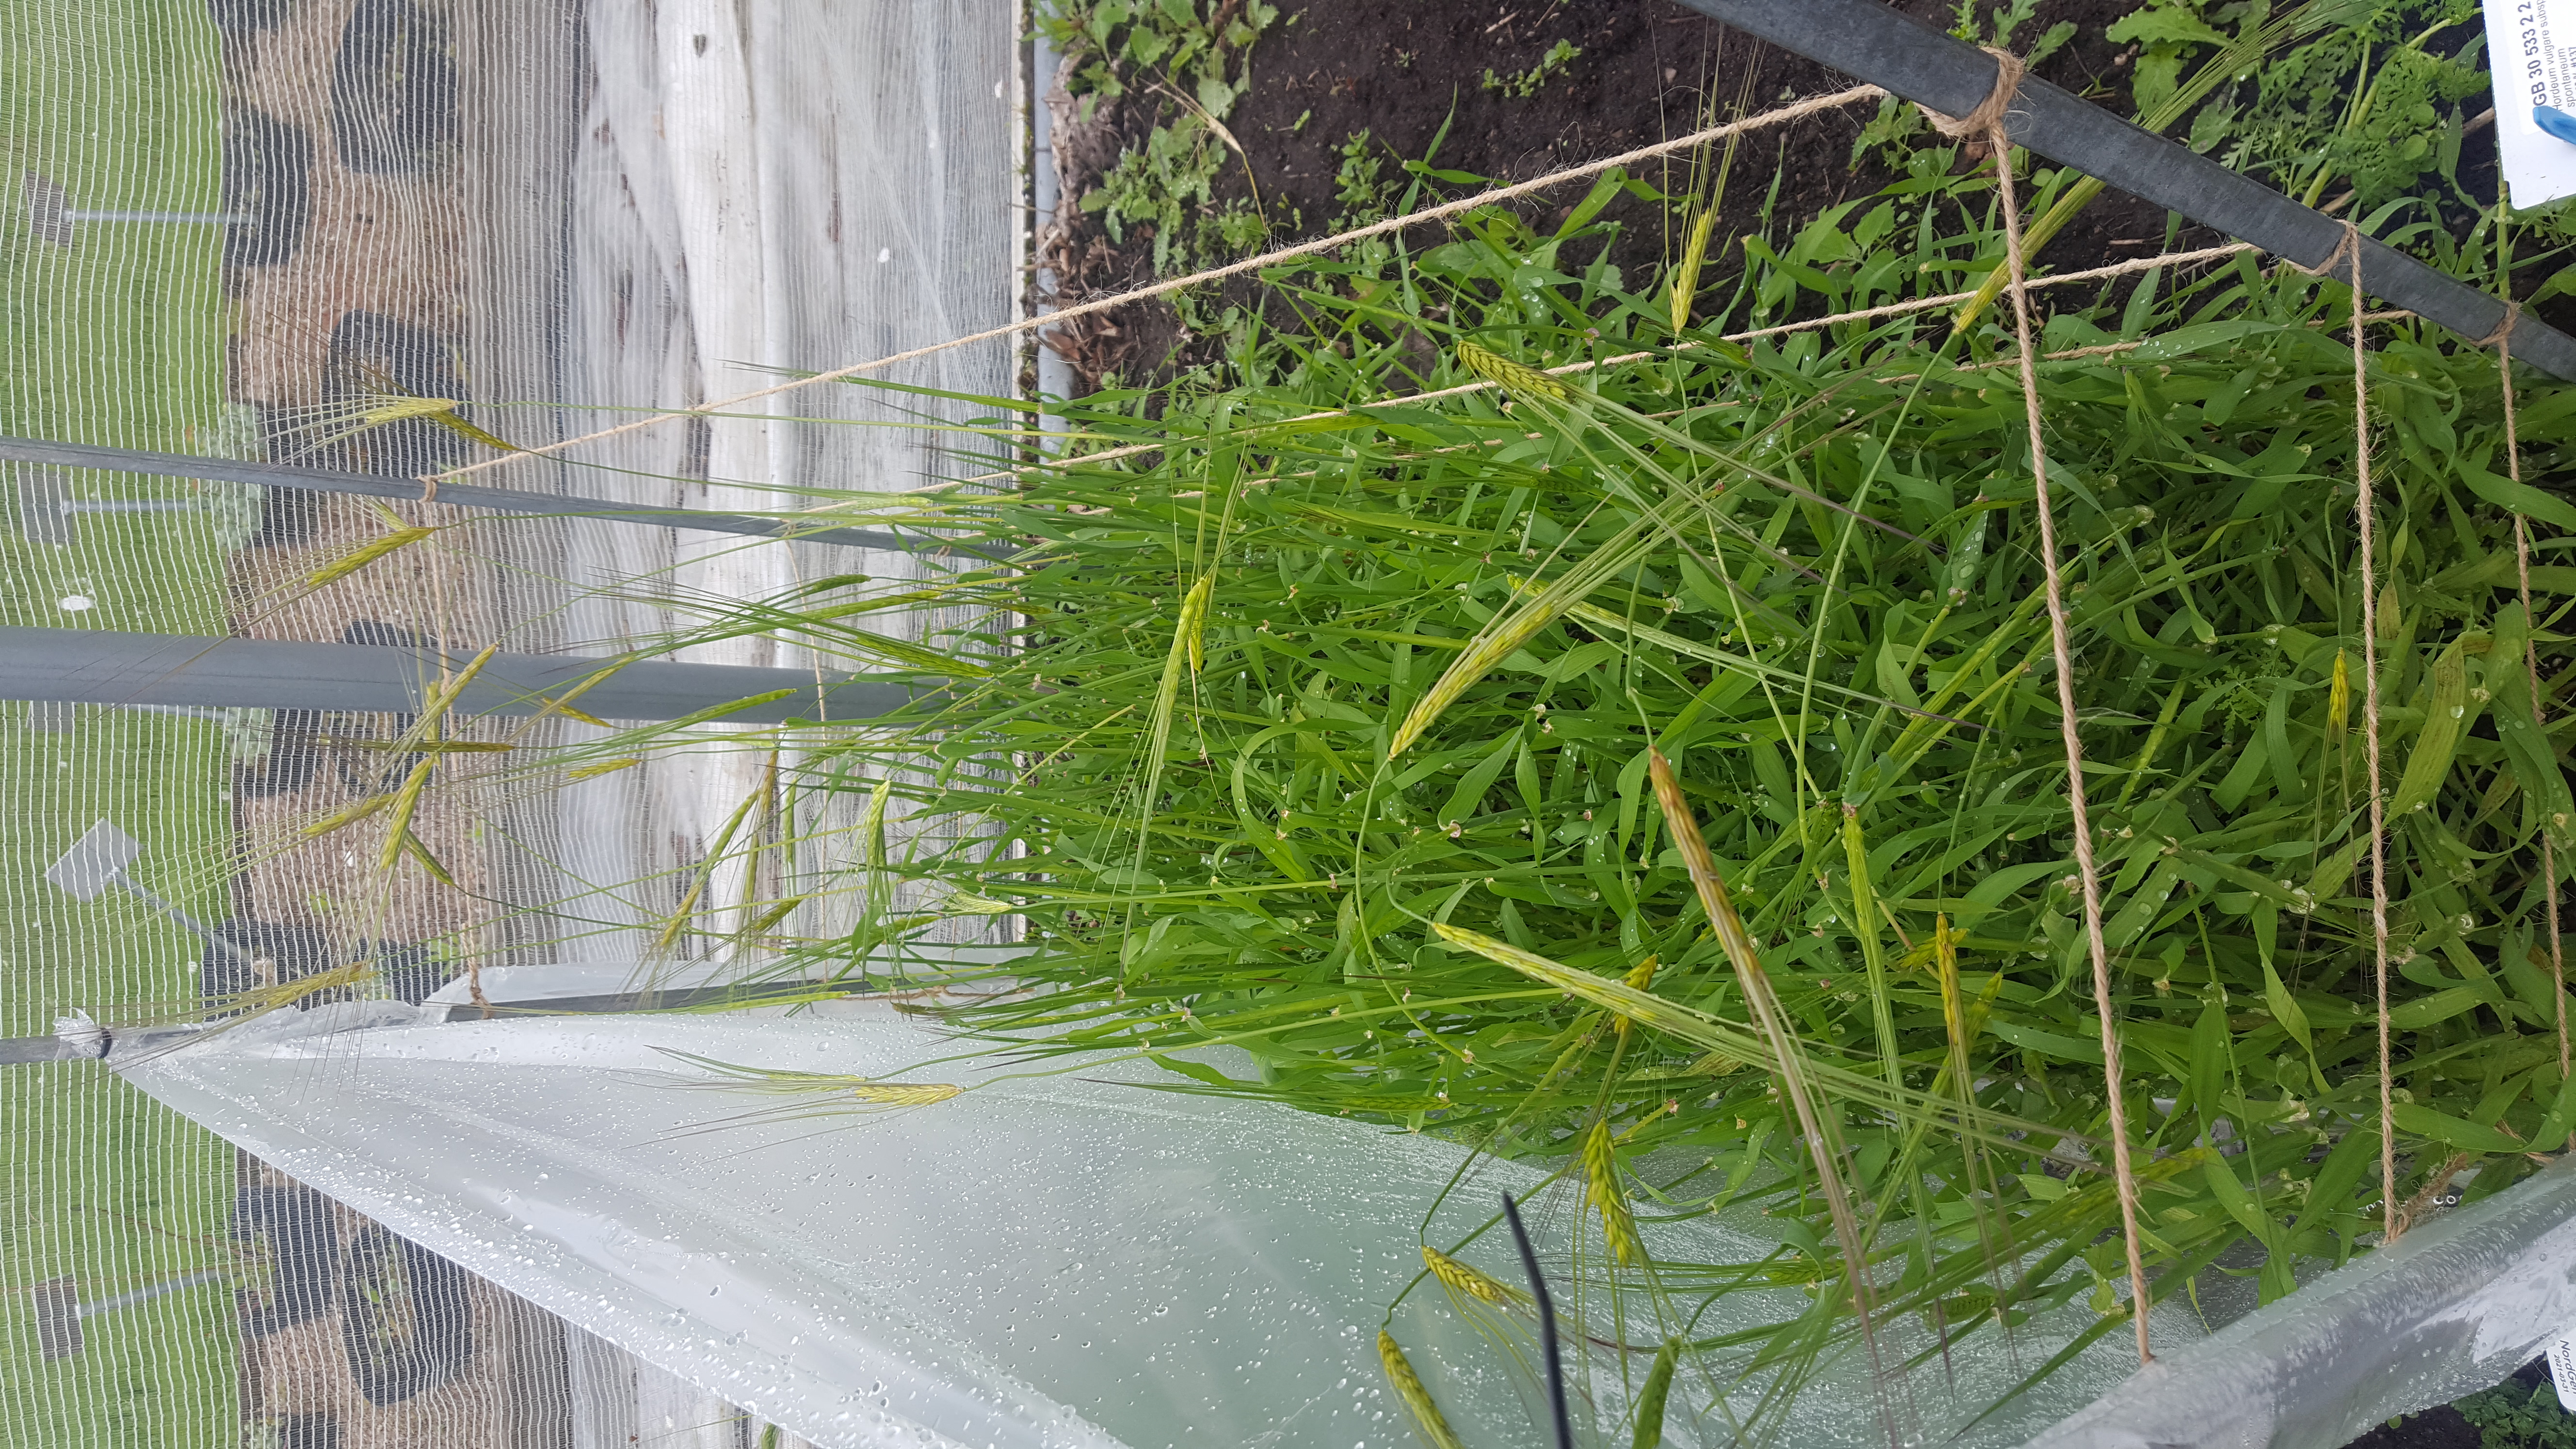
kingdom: Plantae
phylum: Tracheophyta
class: Liliopsida
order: Poales
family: Poaceae
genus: Hordeum
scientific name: Hordeum spontaneum
